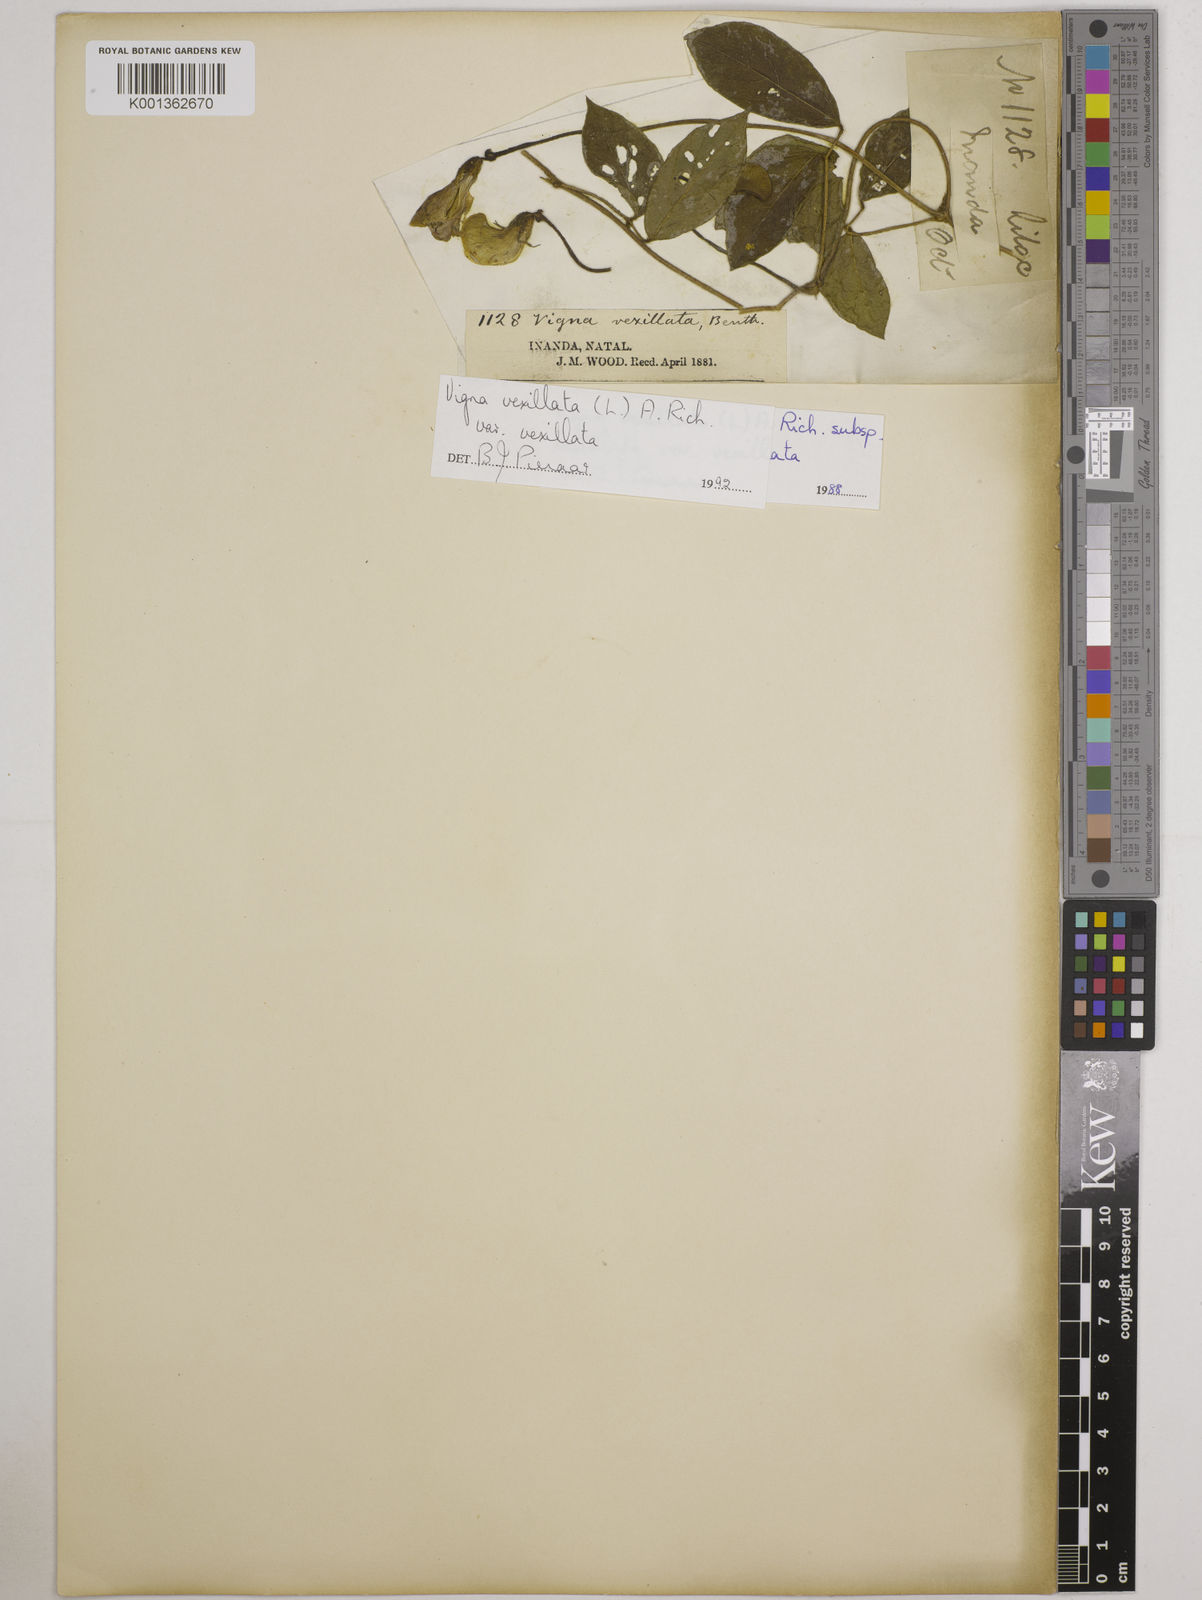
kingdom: Plantae
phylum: Tracheophyta
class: Magnoliopsida
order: Fabales
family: Fabaceae
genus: Vigna
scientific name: Vigna
